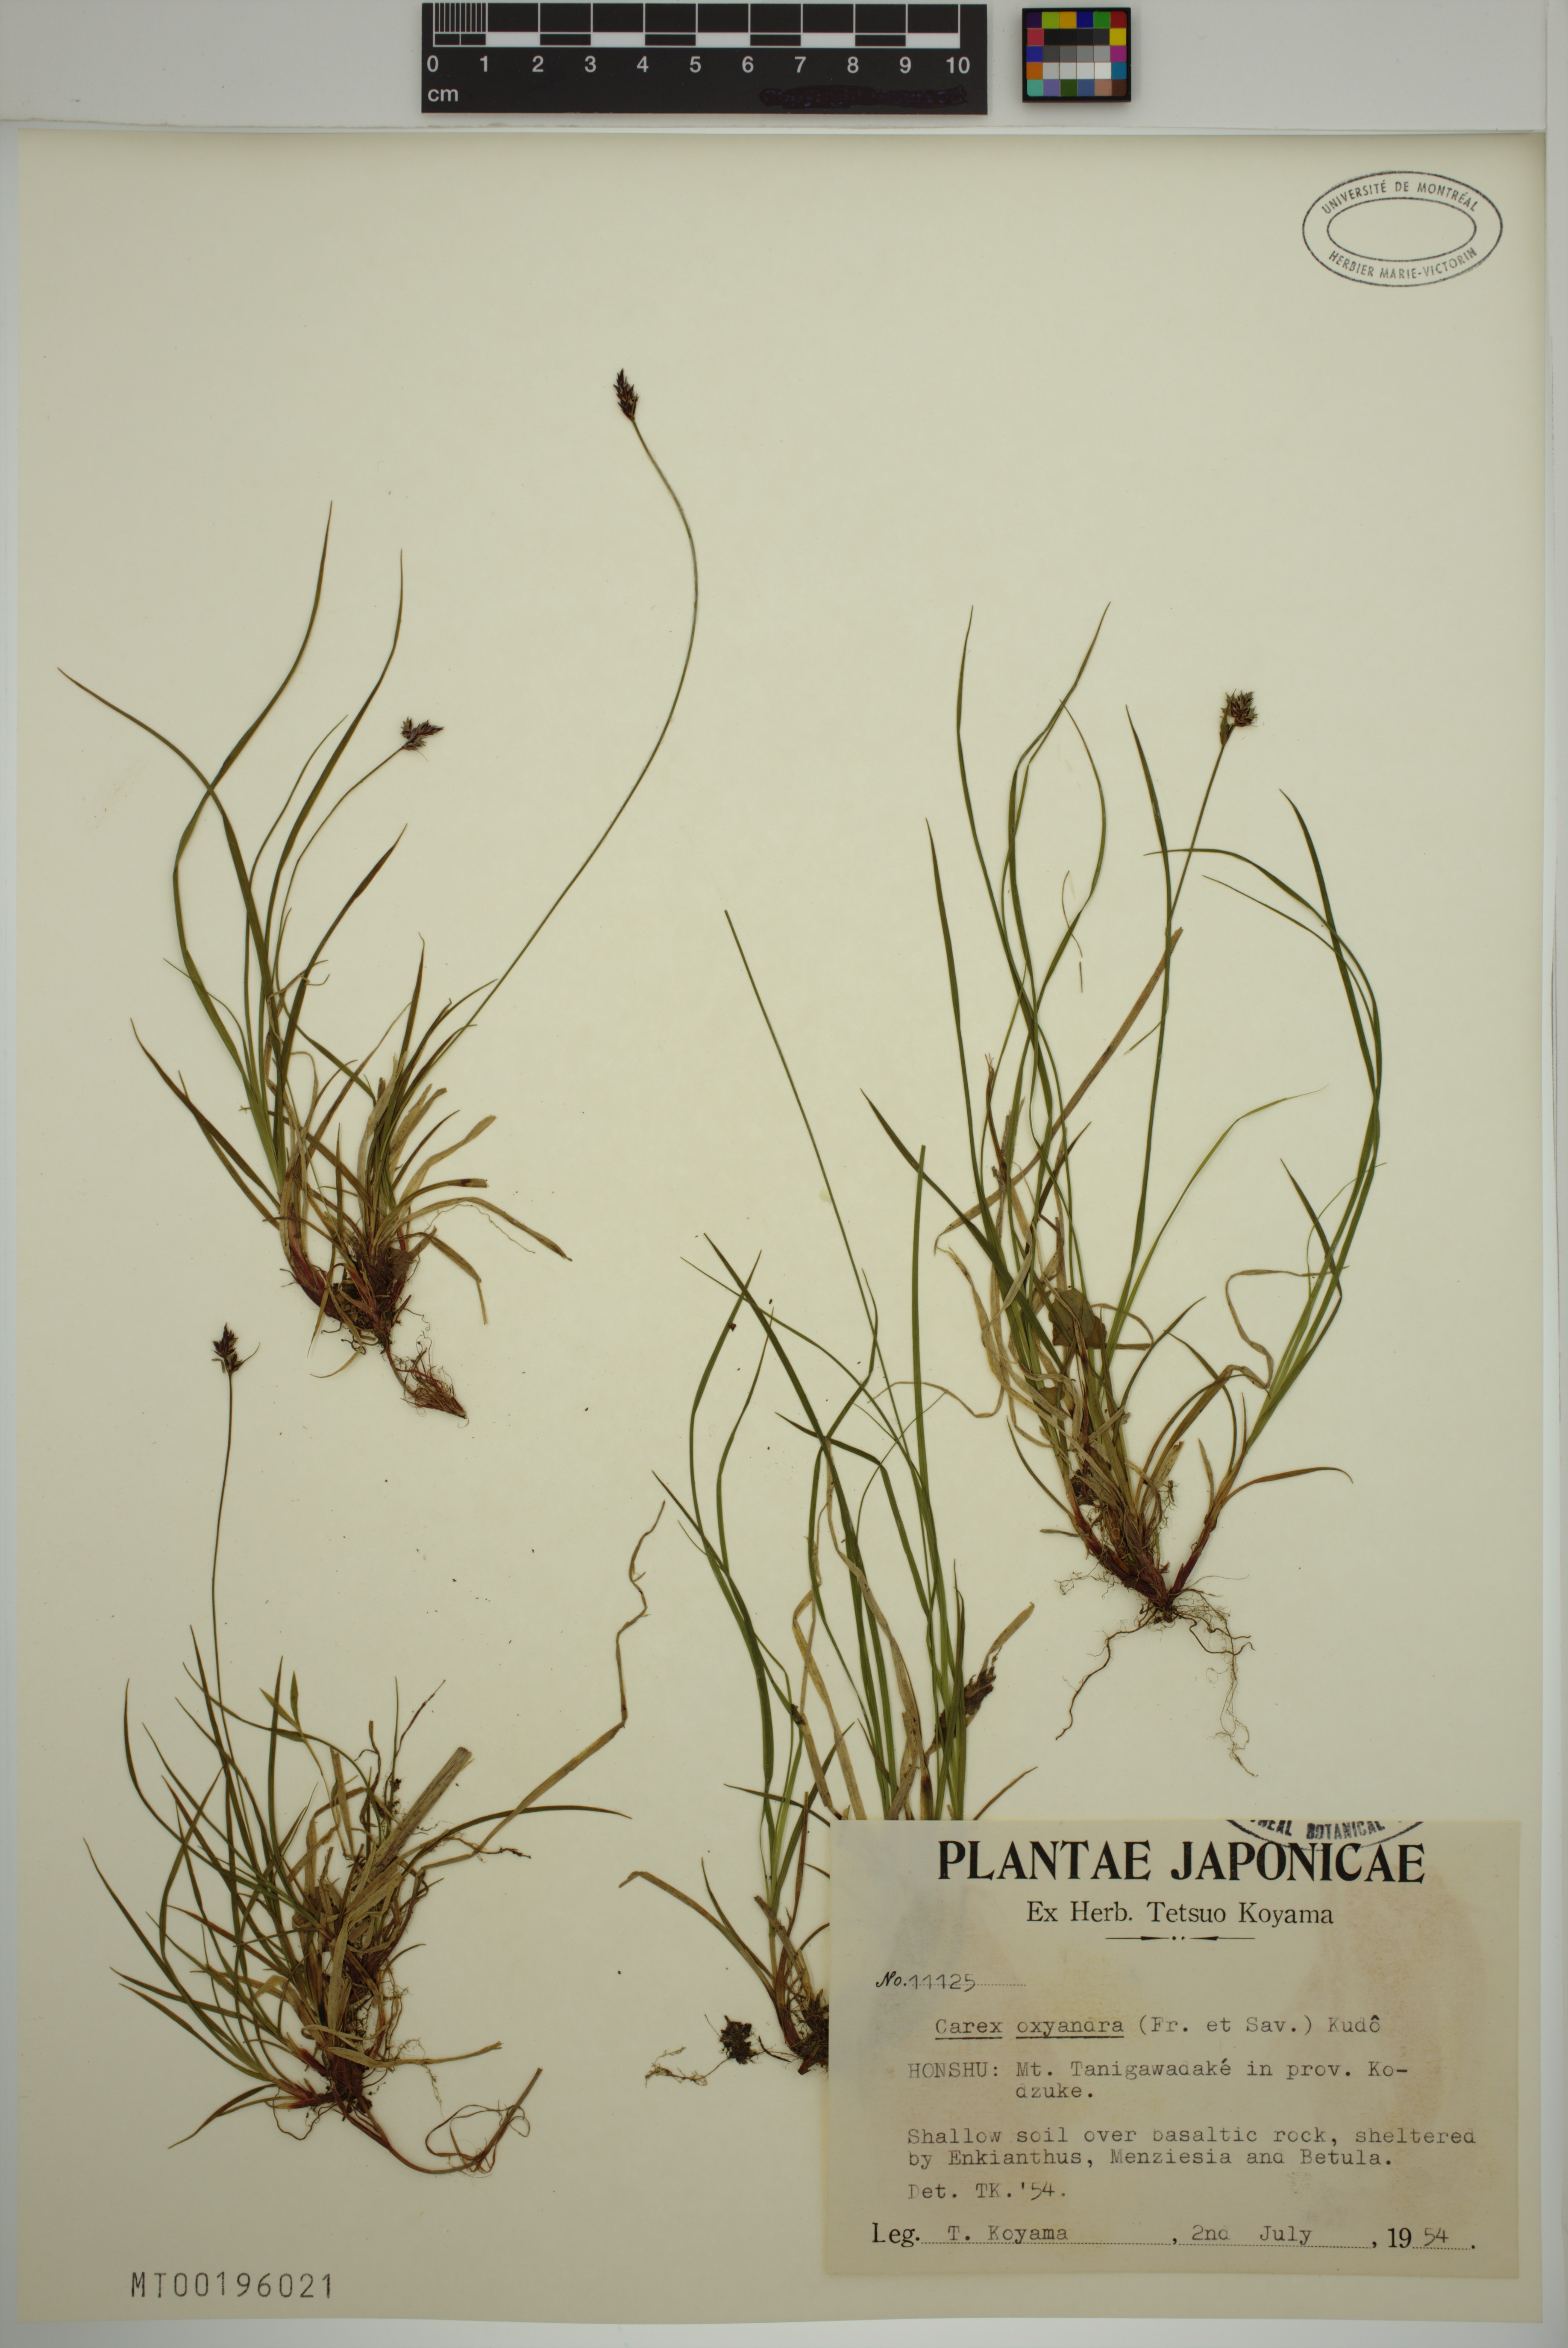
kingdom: Plantae
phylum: Tracheophyta
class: Liliopsida
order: Poales
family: Cyperaceae
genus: Carex
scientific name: Carex oxyandra
